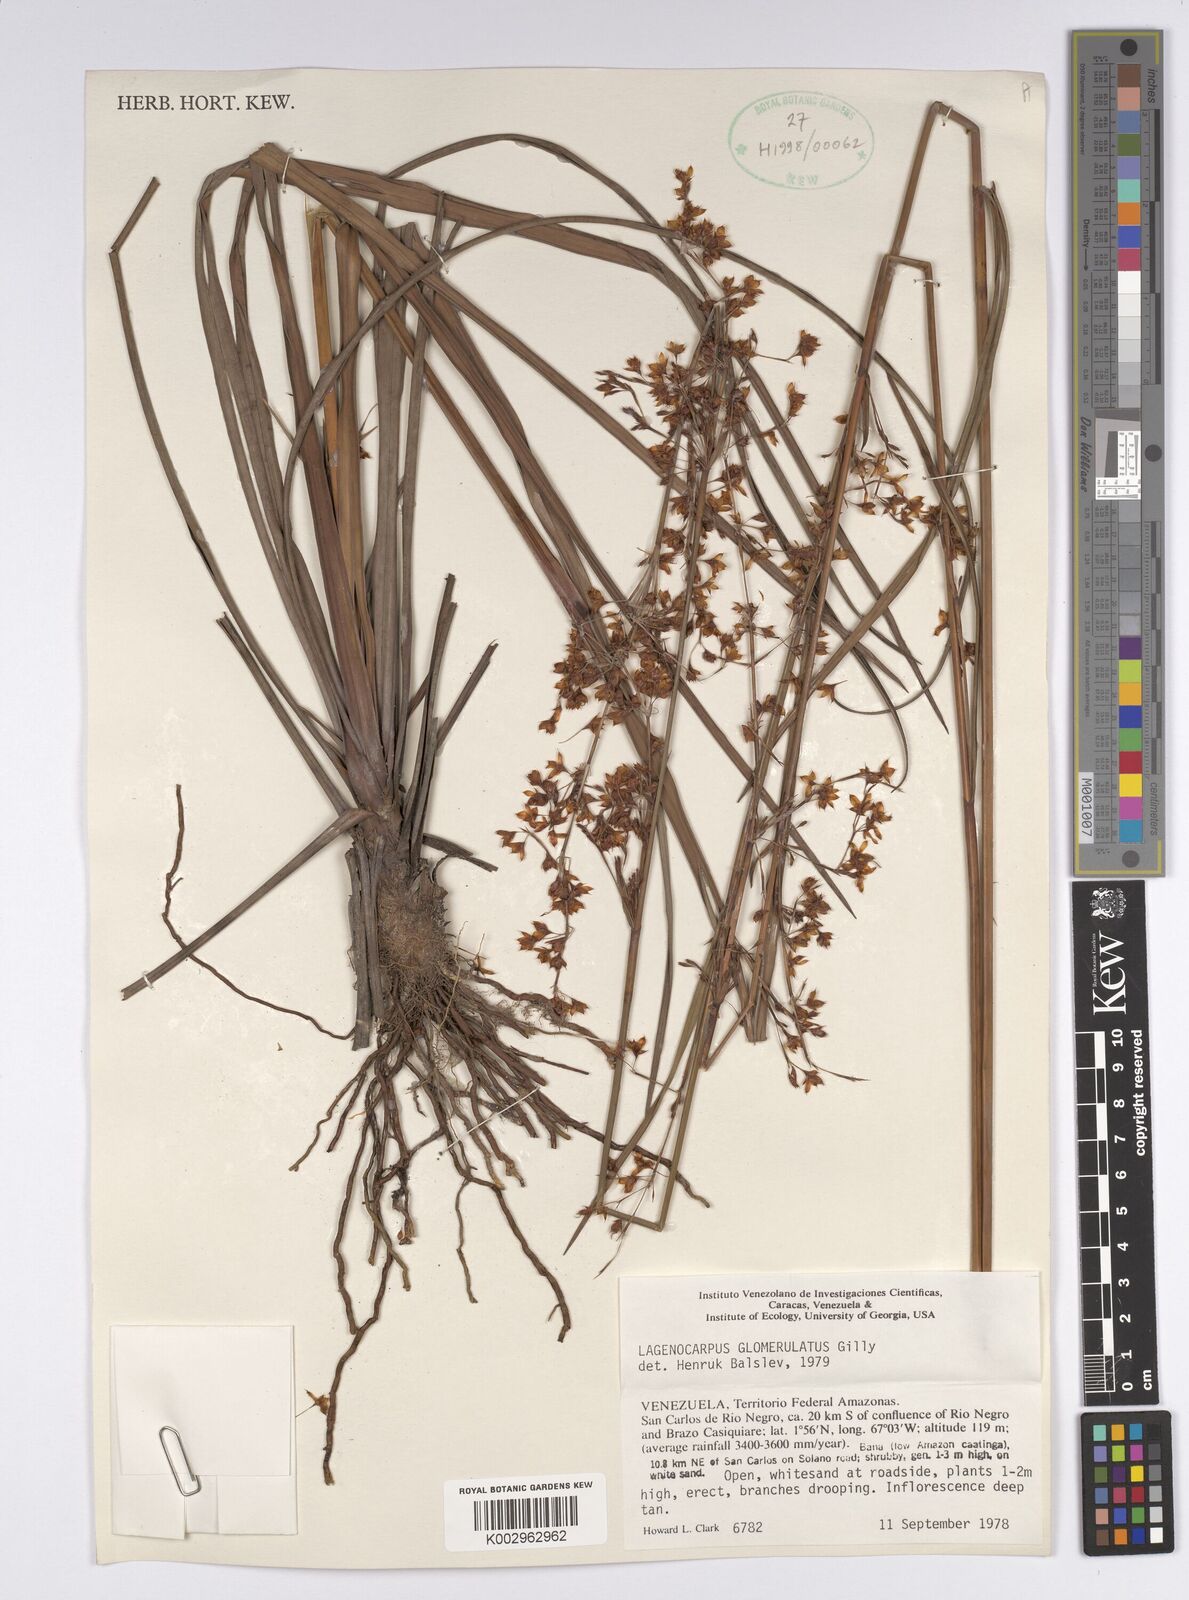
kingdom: Plantae
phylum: Tracheophyta
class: Liliopsida
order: Poales
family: Cyperaceae
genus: Lagenocarpus
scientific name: Lagenocarpus glomerulatus
